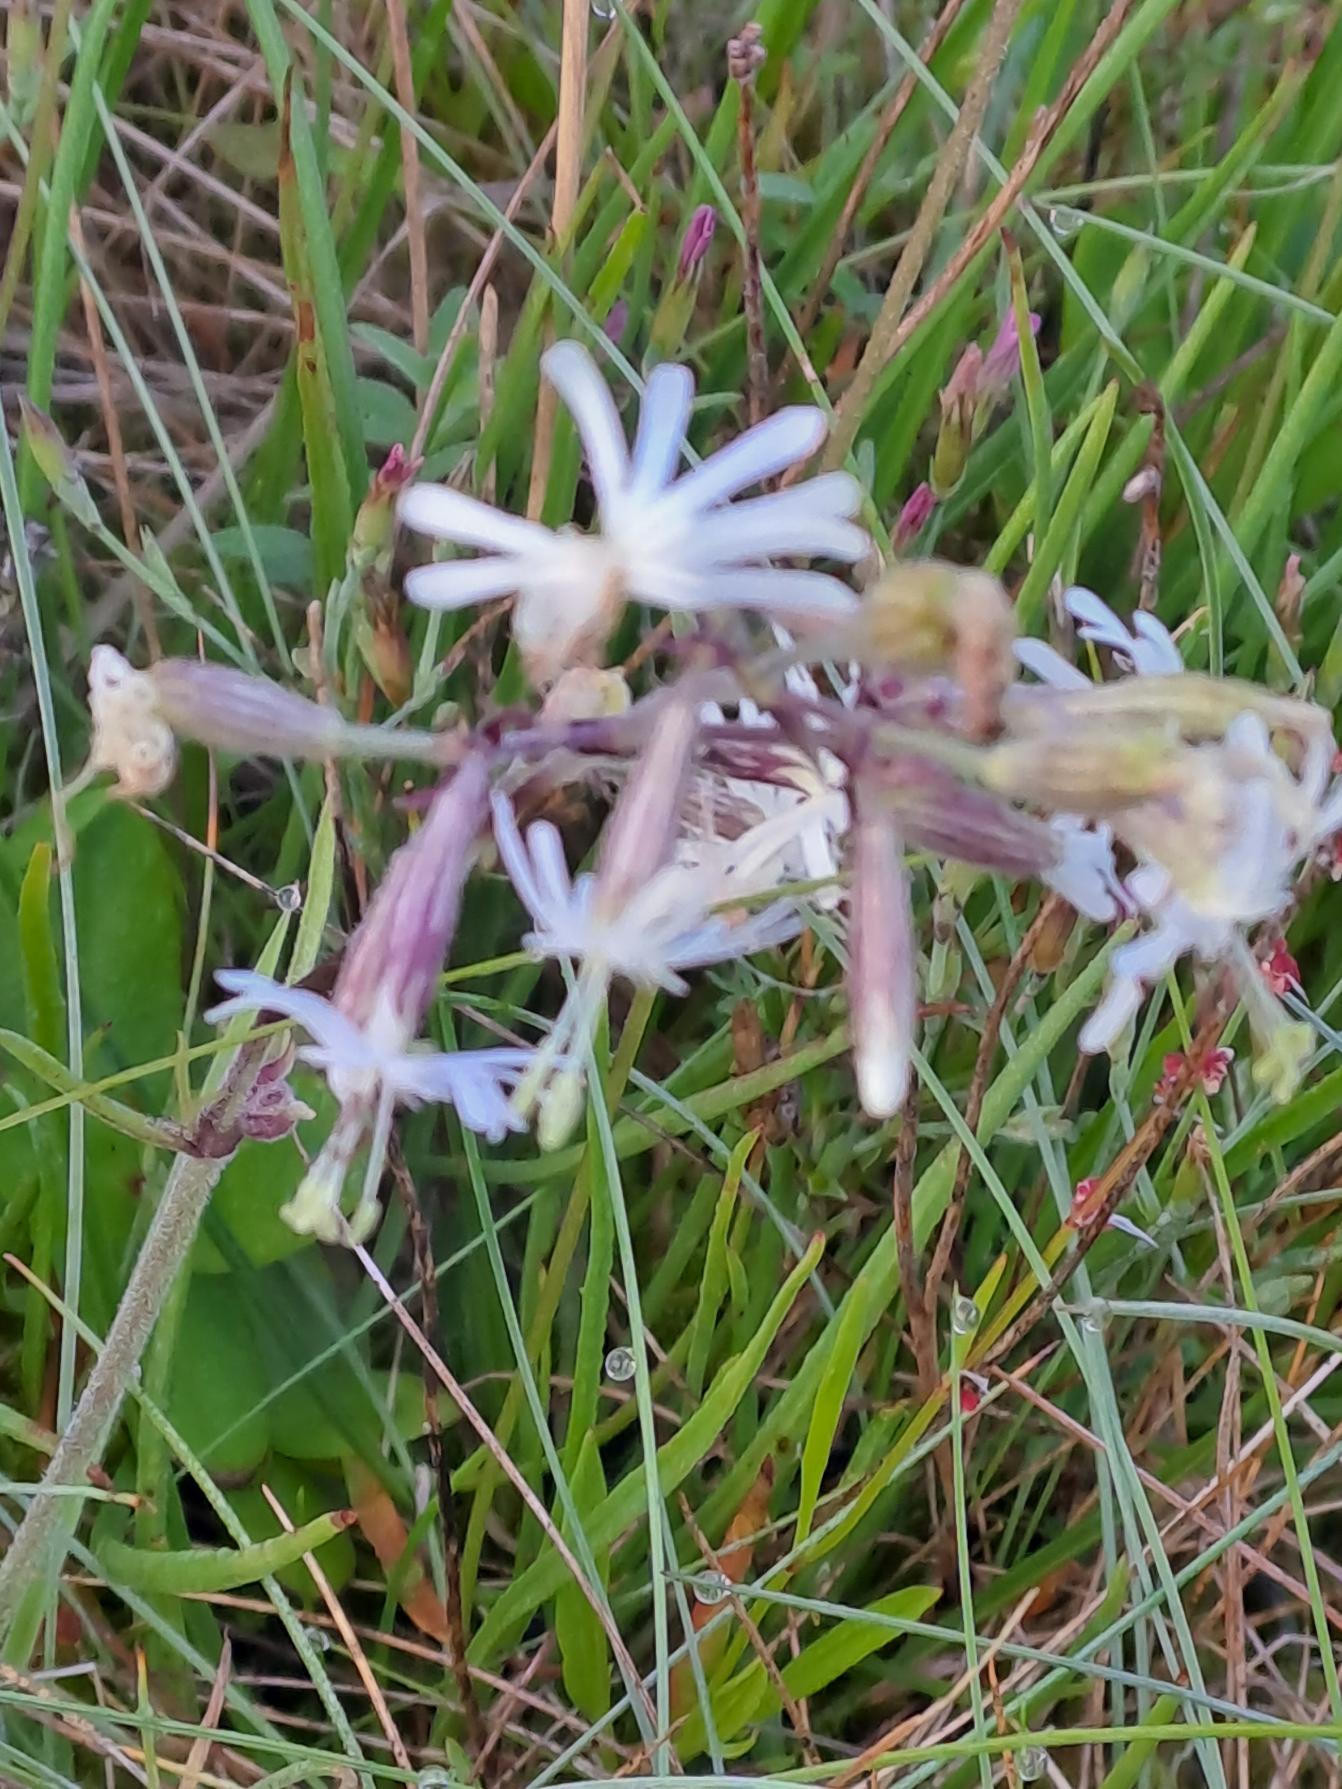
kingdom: Plantae
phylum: Tracheophyta
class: Magnoliopsida
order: Caryophyllales
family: Caryophyllaceae
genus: Silene
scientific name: Silene nutans
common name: Nikkende limurt
